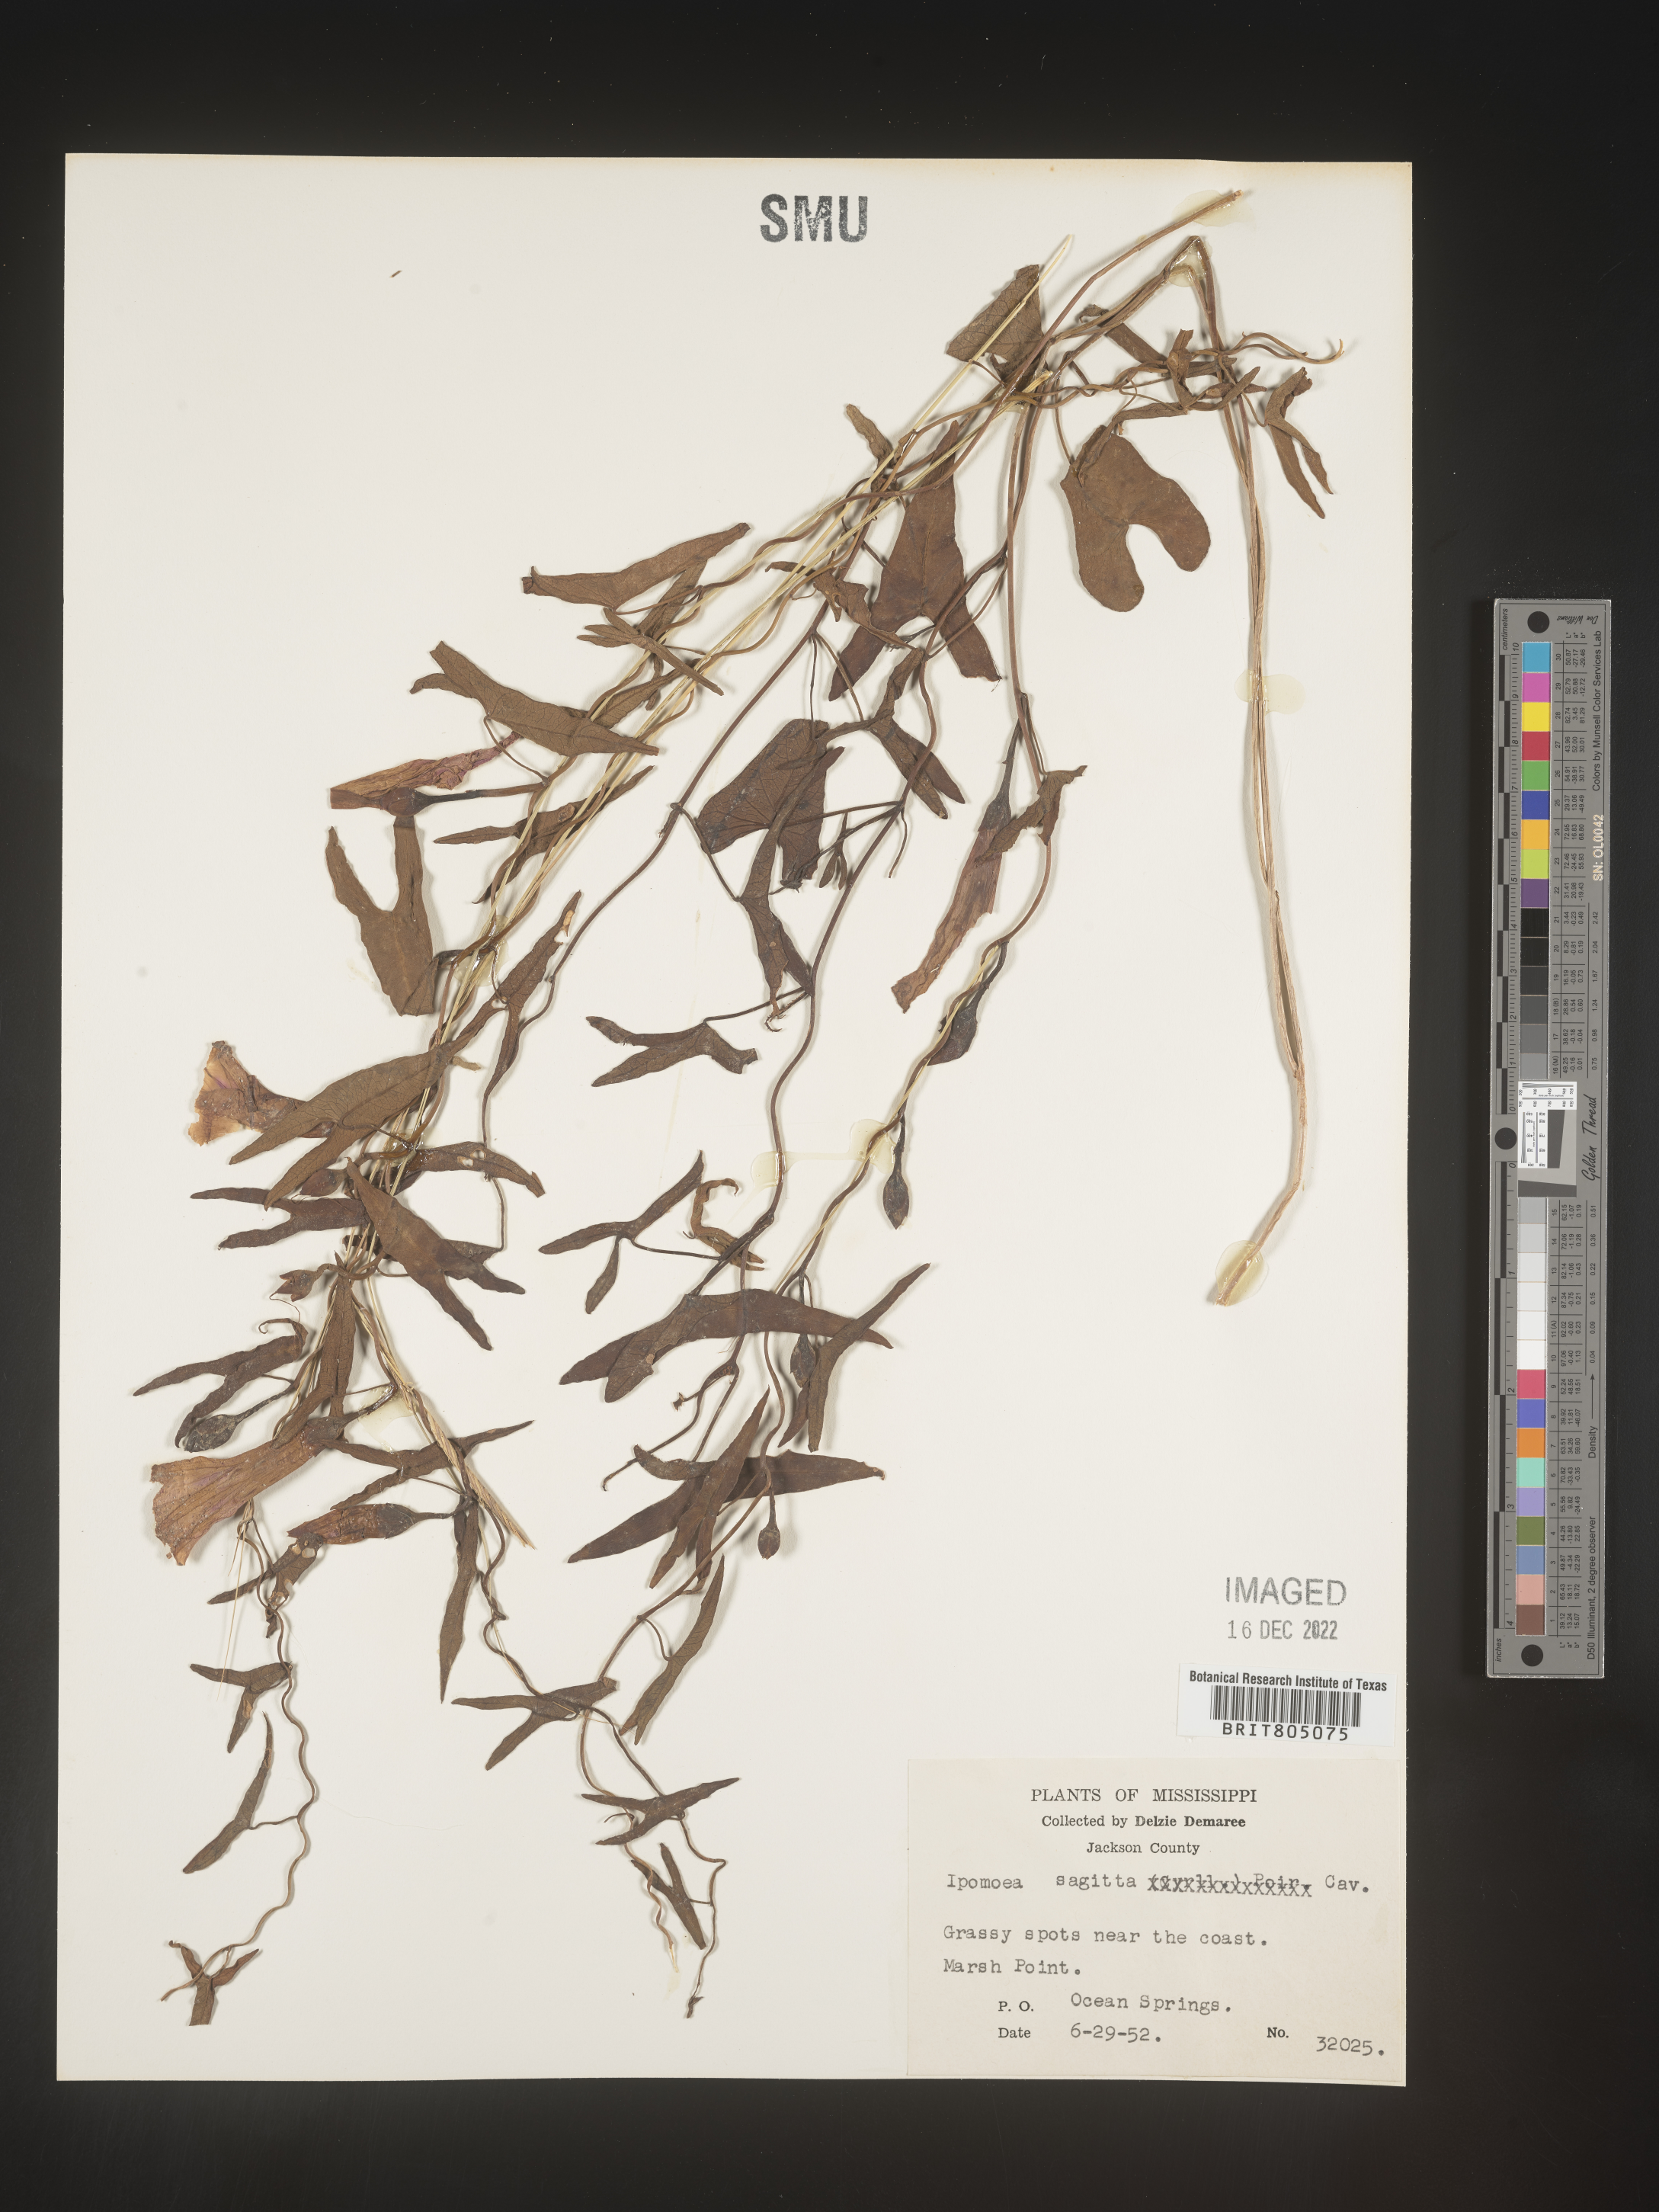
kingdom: Plantae
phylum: Tracheophyta
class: Magnoliopsida
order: Solanales
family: Convolvulaceae
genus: Ipomoea
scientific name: Ipomoea sinensis
